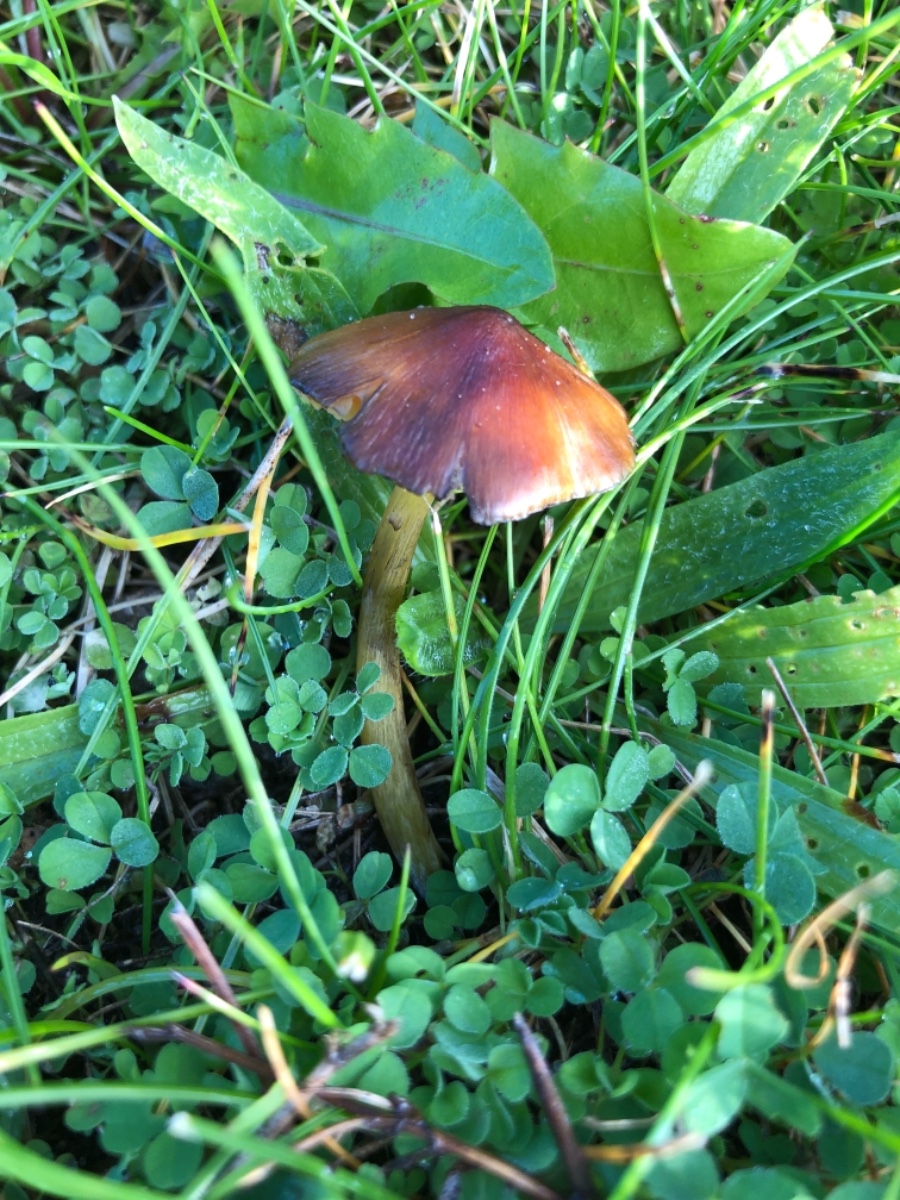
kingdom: Fungi
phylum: Basidiomycota
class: Agaricomycetes
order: Agaricales
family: Hygrophoraceae
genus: Hygrocybe
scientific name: Hygrocybe conica
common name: kegle-vokshat
